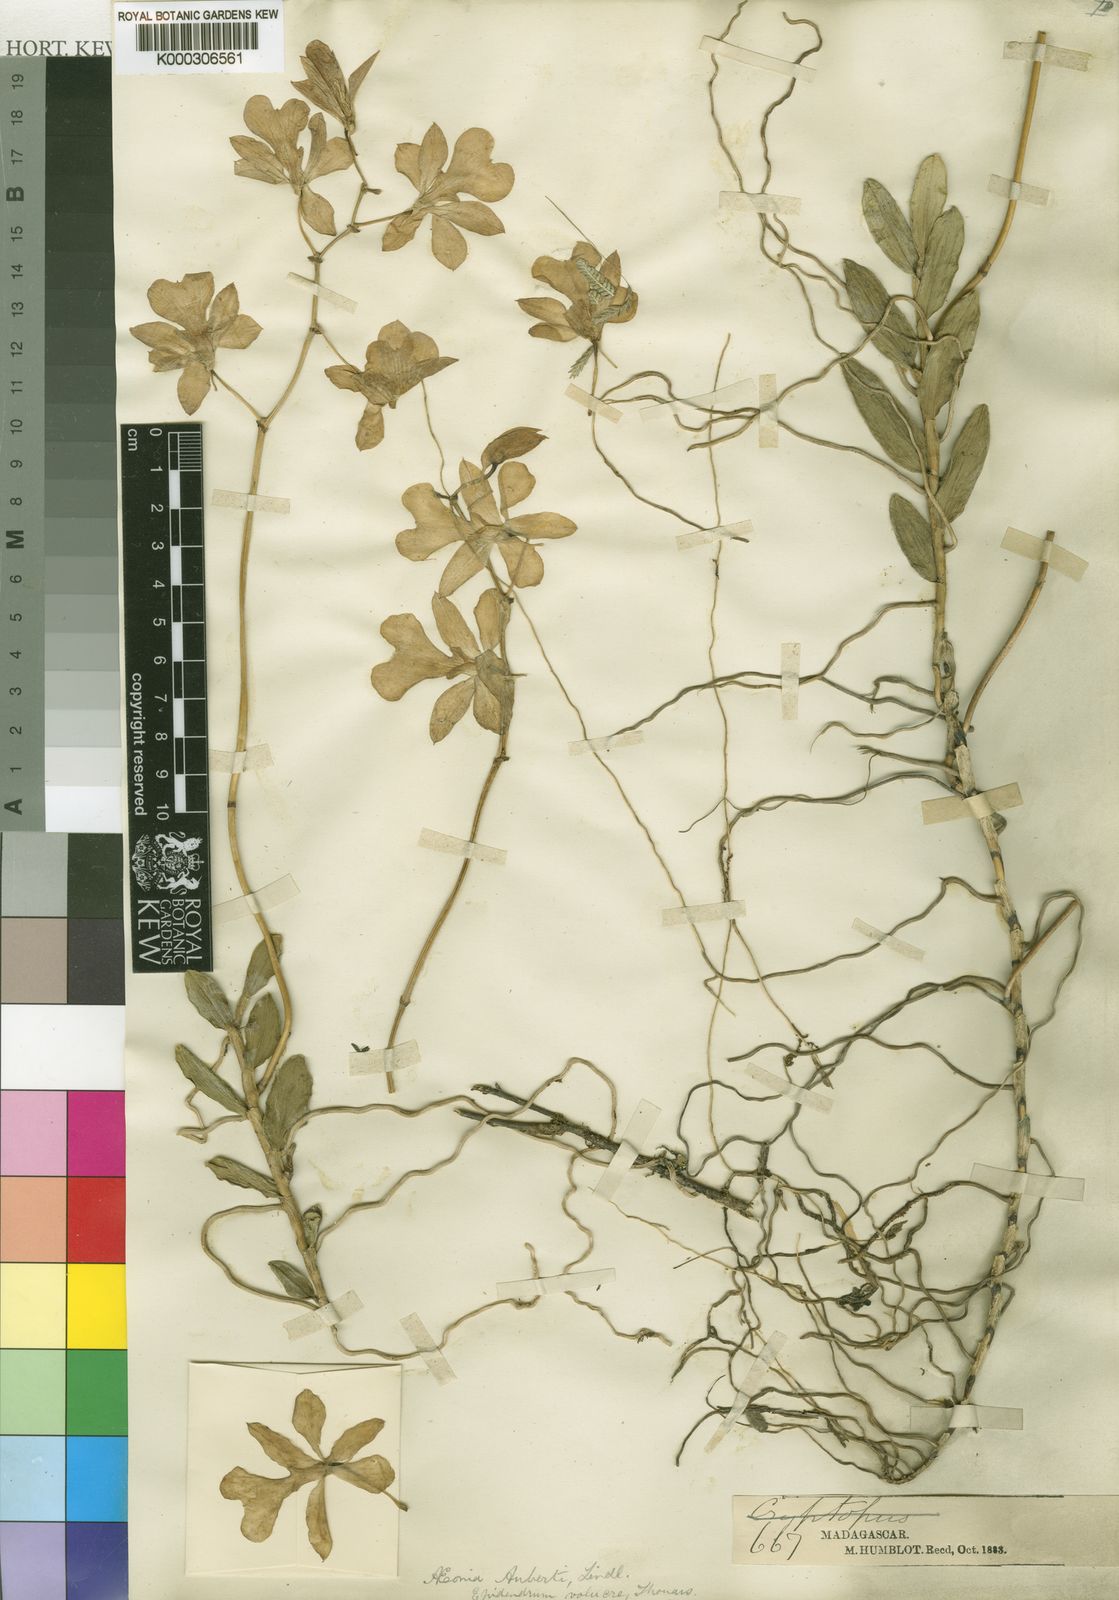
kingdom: Plantae
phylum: Tracheophyta
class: Liliopsida
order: Asparagales
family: Orchidaceae
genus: Oeonia
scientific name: Oeonia volucris
